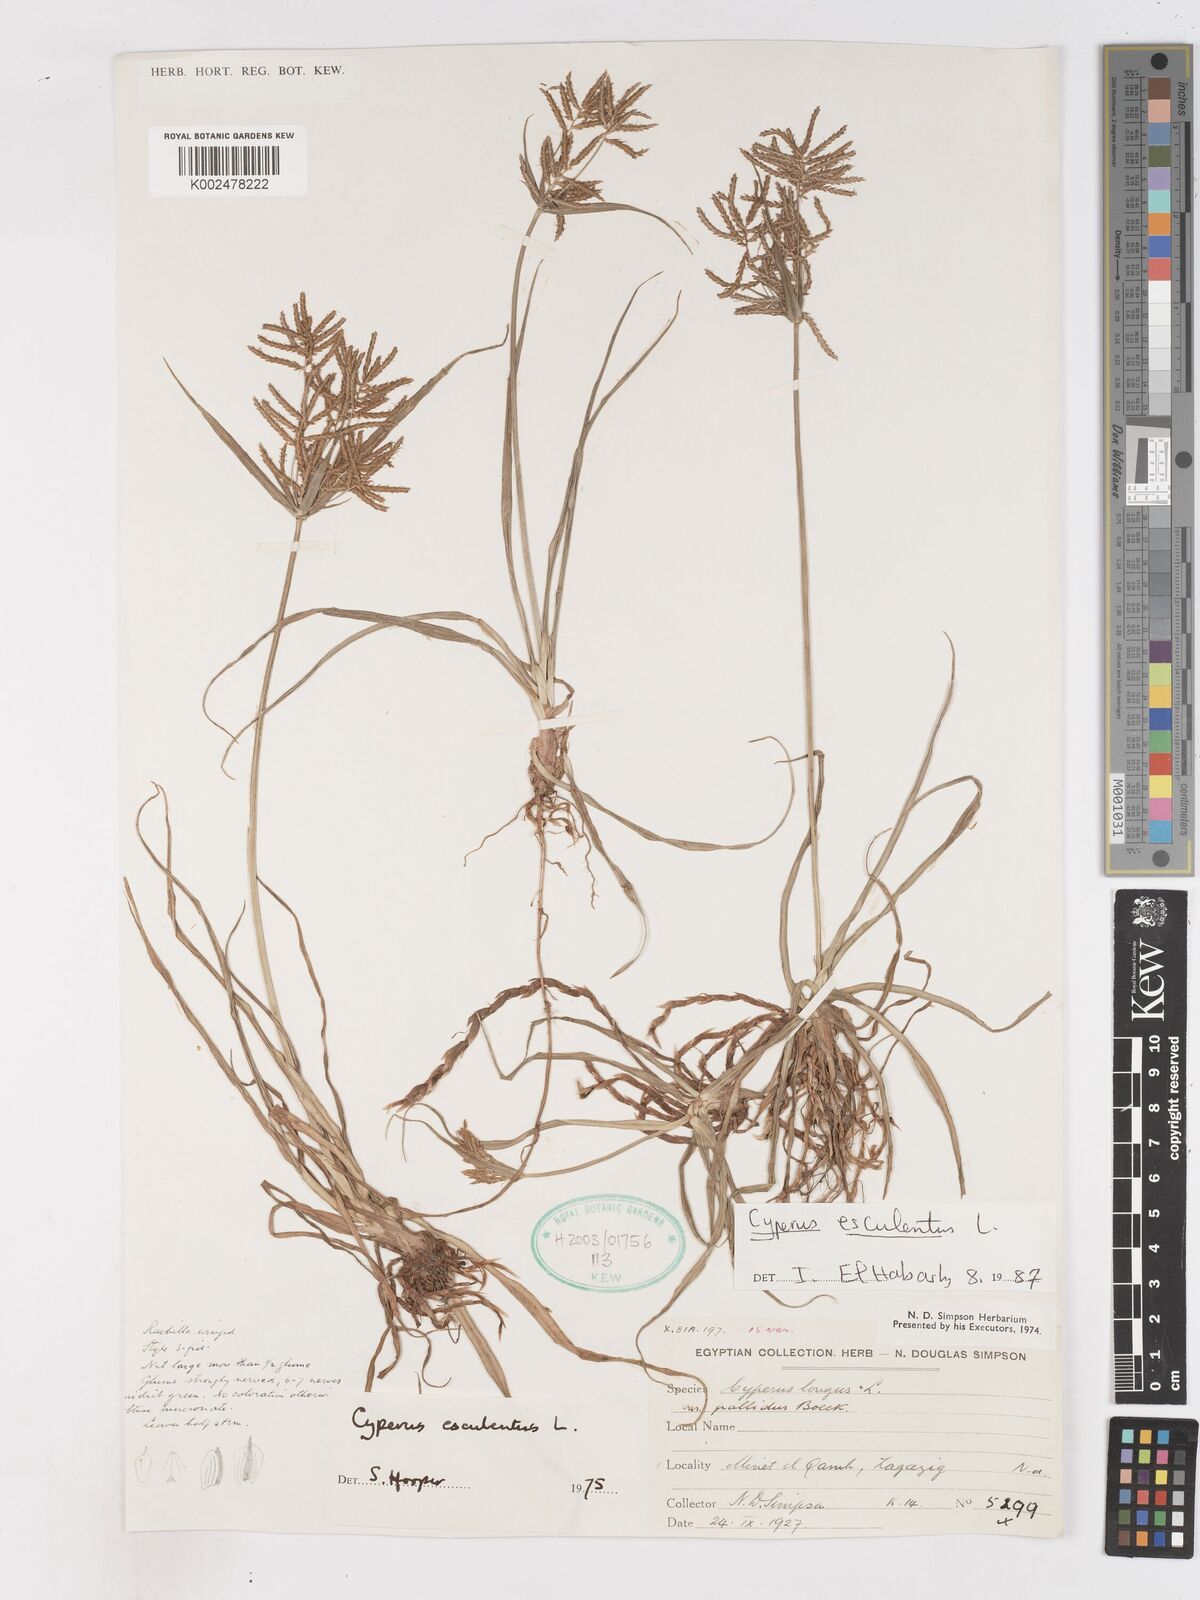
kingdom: Plantae
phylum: Tracheophyta
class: Liliopsida
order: Poales
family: Cyperaceae
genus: Cyperus
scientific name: Cyperus esculentus
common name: Yellow nutsedge
